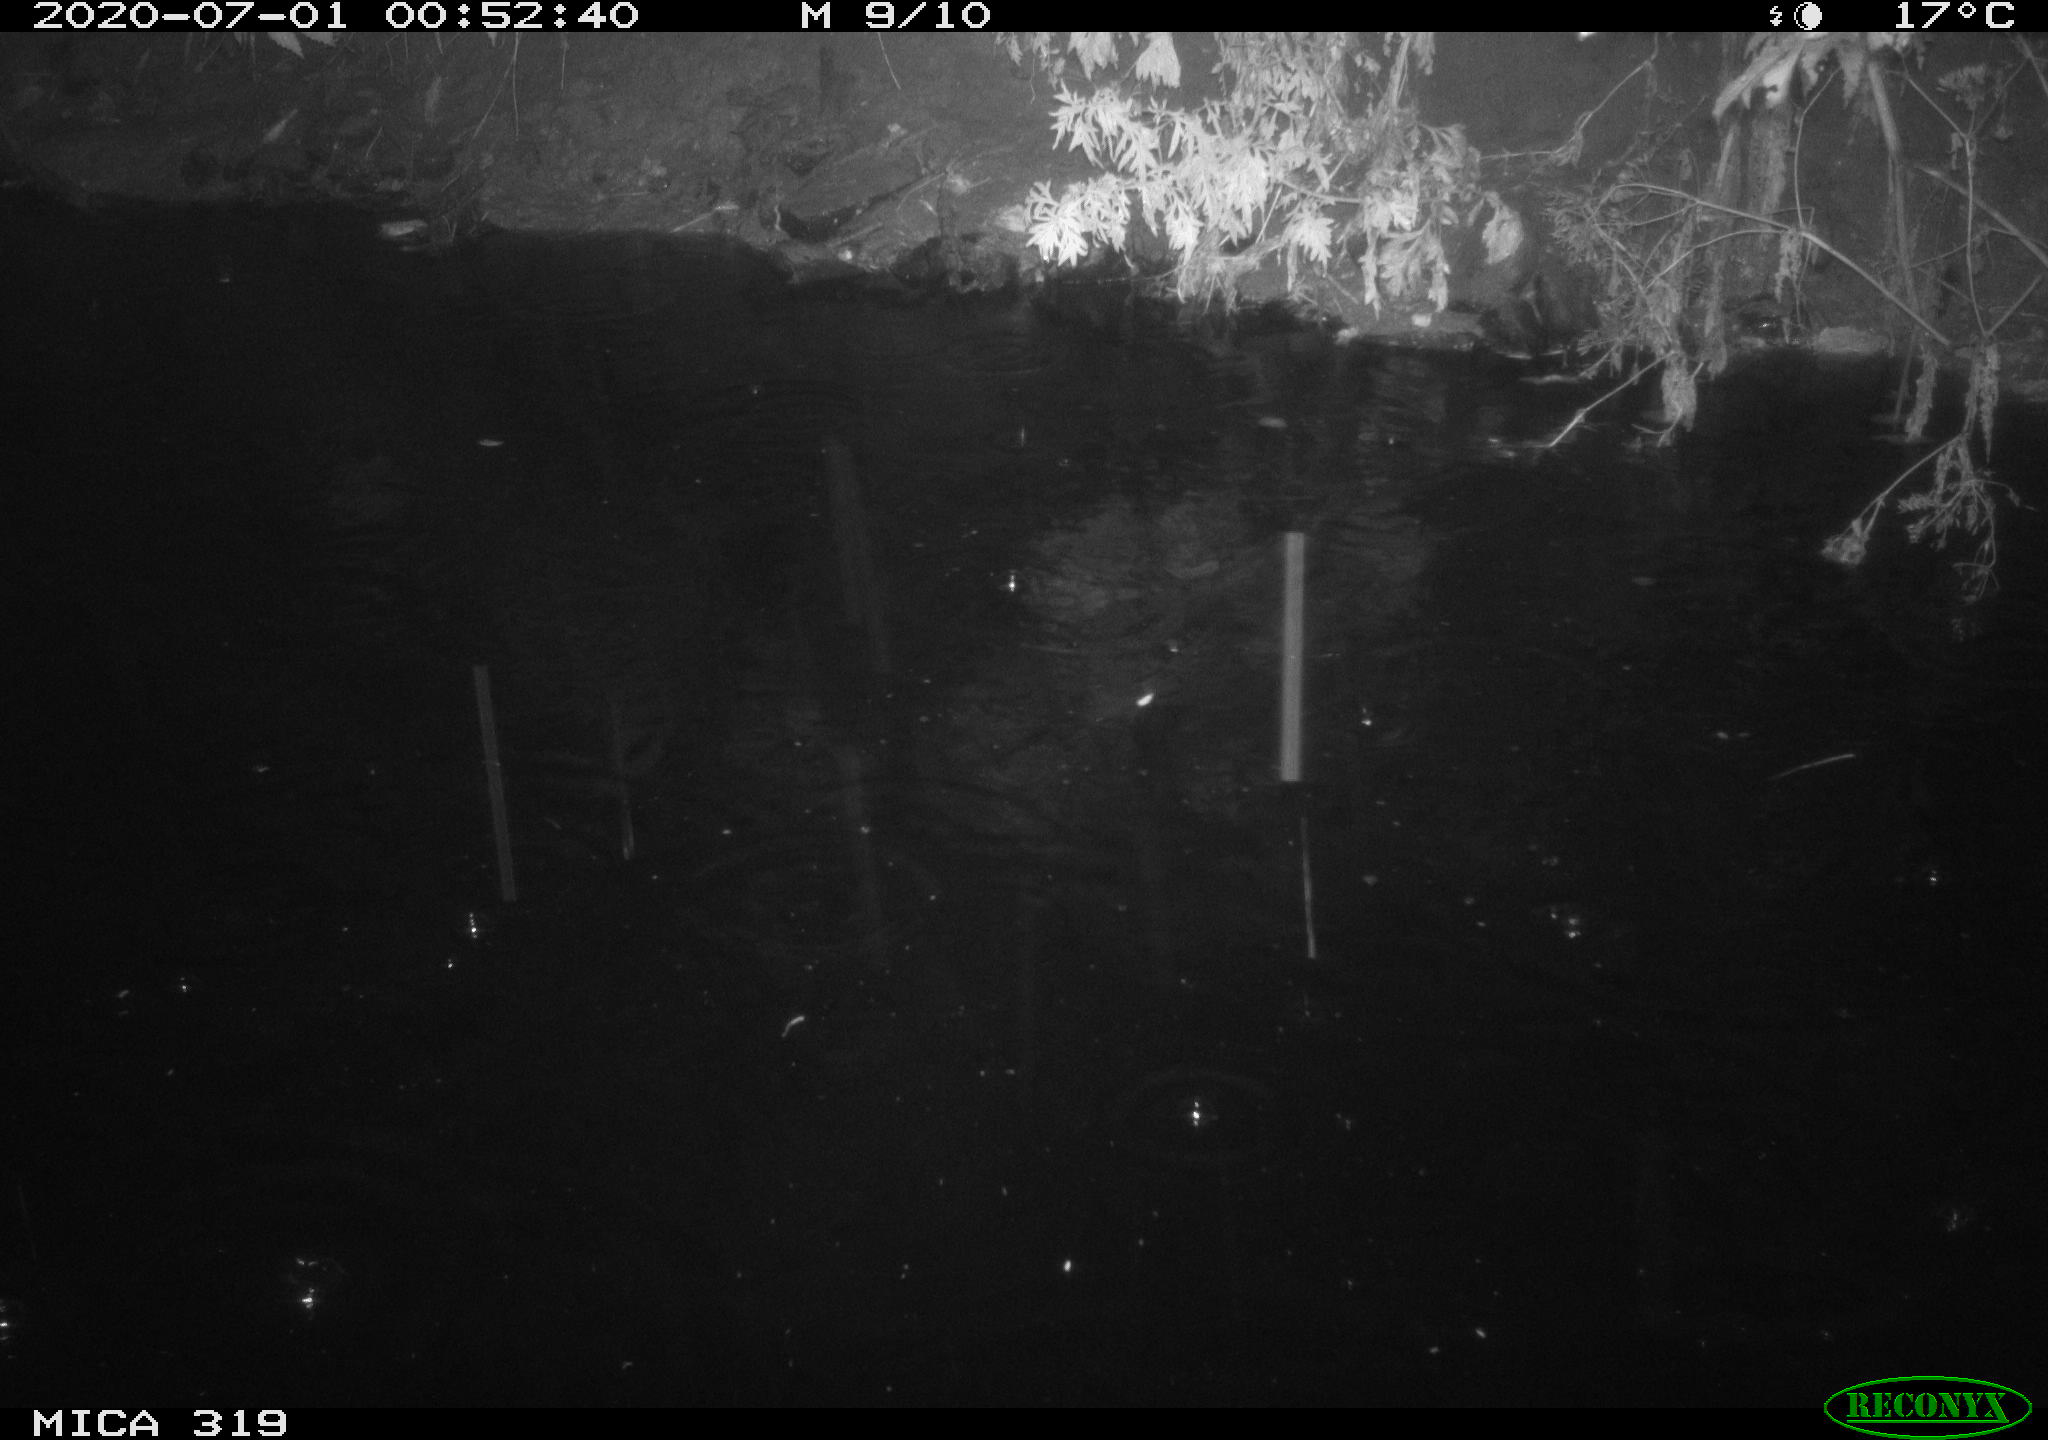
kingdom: Animalia
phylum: Chordata
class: Aves
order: Anseriformes
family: Anatidae
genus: Anas
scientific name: Anas platyrhynchos
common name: Mallard
